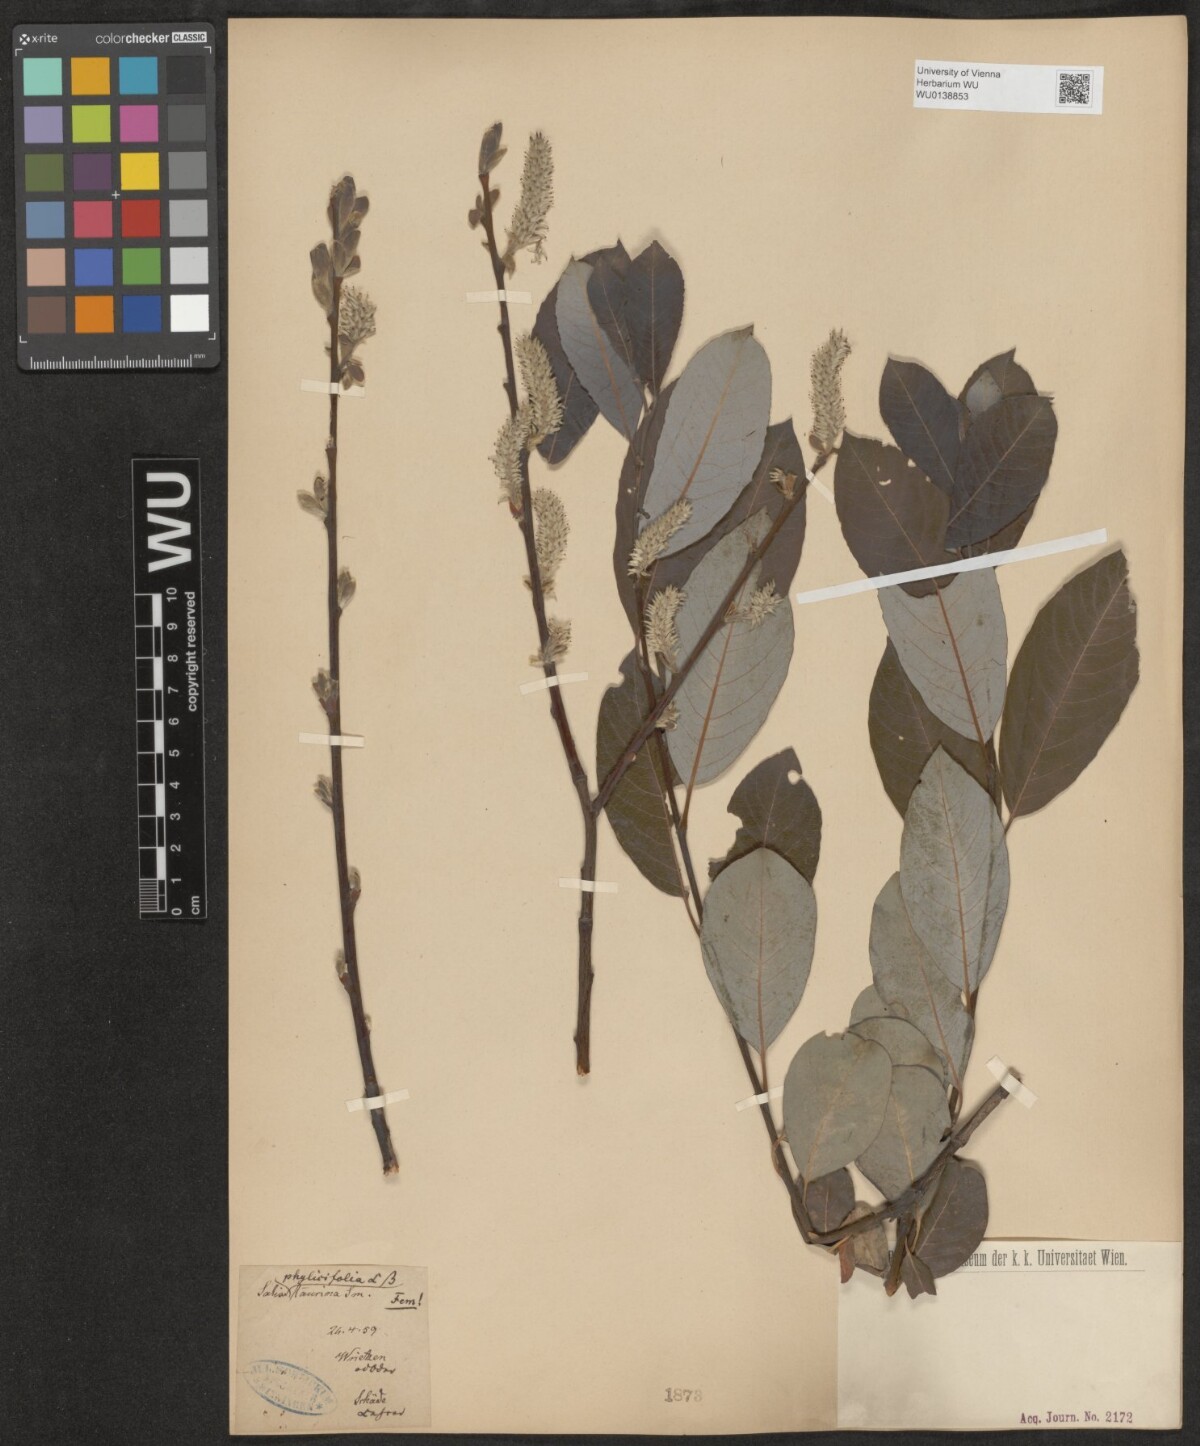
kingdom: Plantae
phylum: Tracheophyta
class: Magnoliopsida
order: Malpighiales
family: Salicaceae
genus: Salix
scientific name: Salix phylicifolia
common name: Tea-leaved willow
